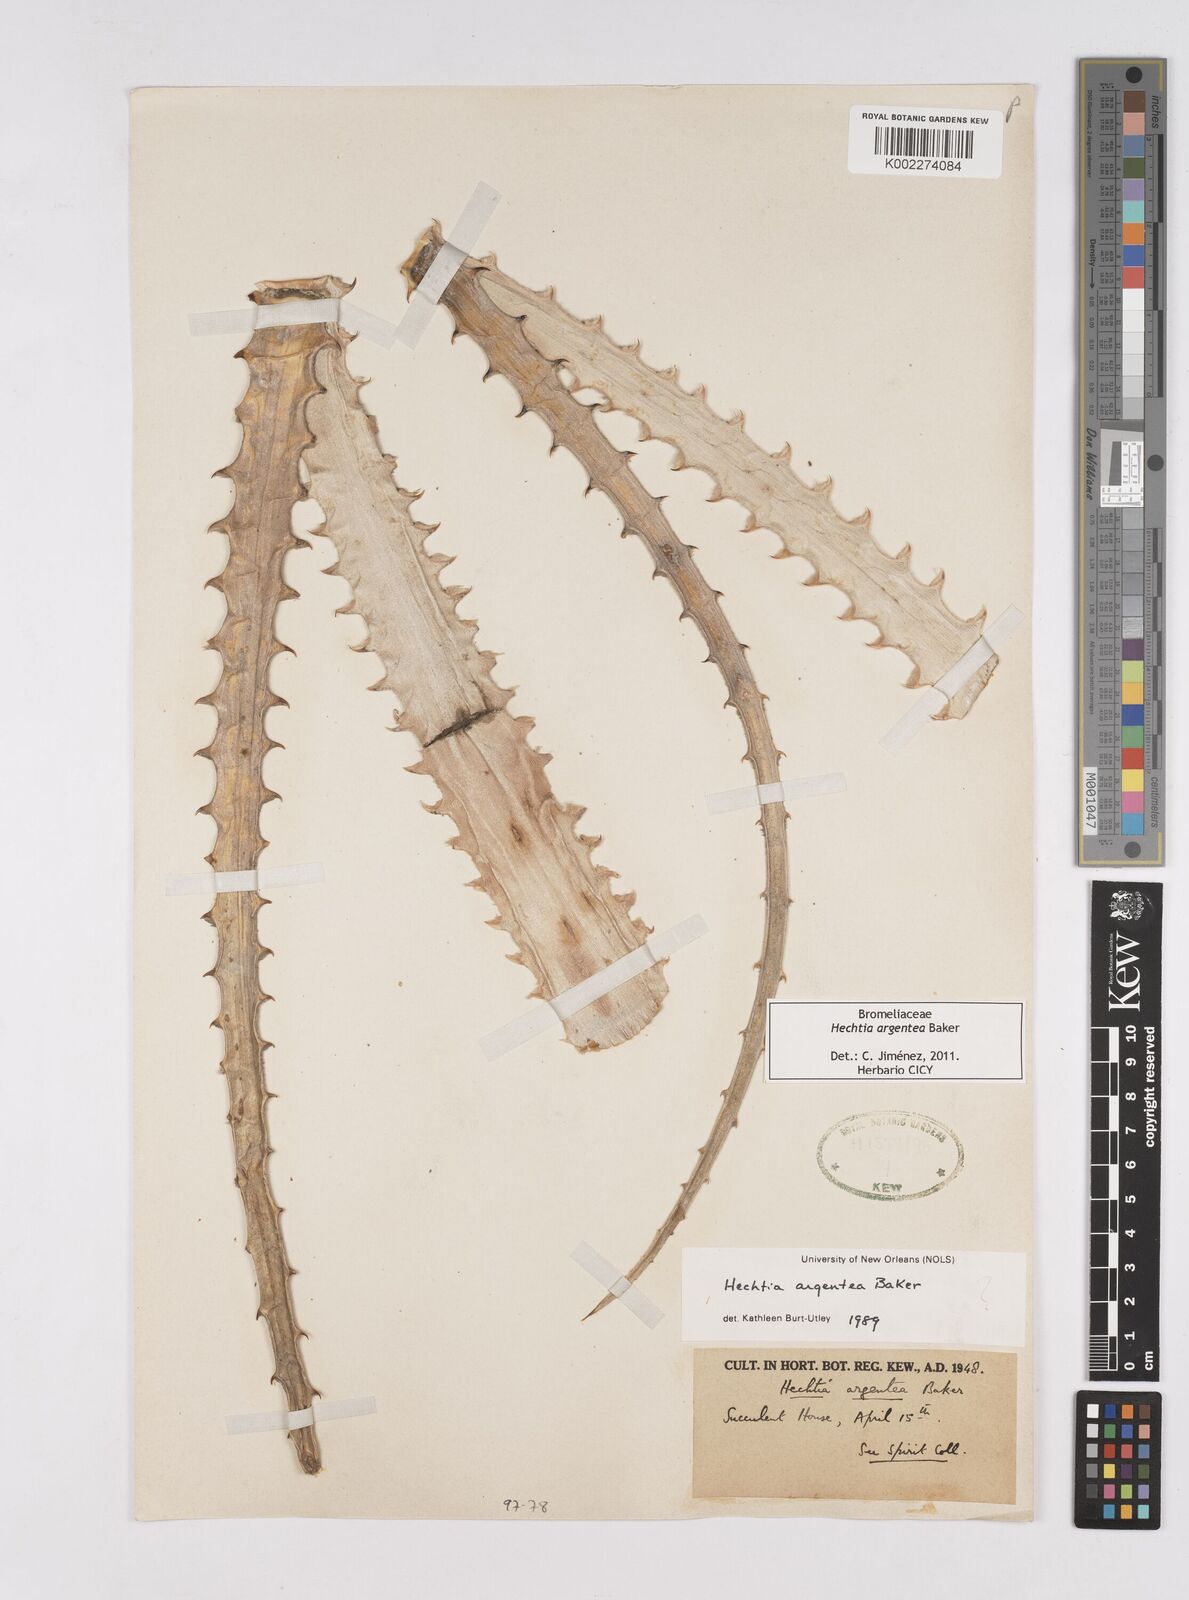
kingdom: Plantae
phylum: Tracheophyta
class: Liliopsida
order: Poales
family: Bromeliaceae
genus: Hechtia
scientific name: Hechtia argentea
